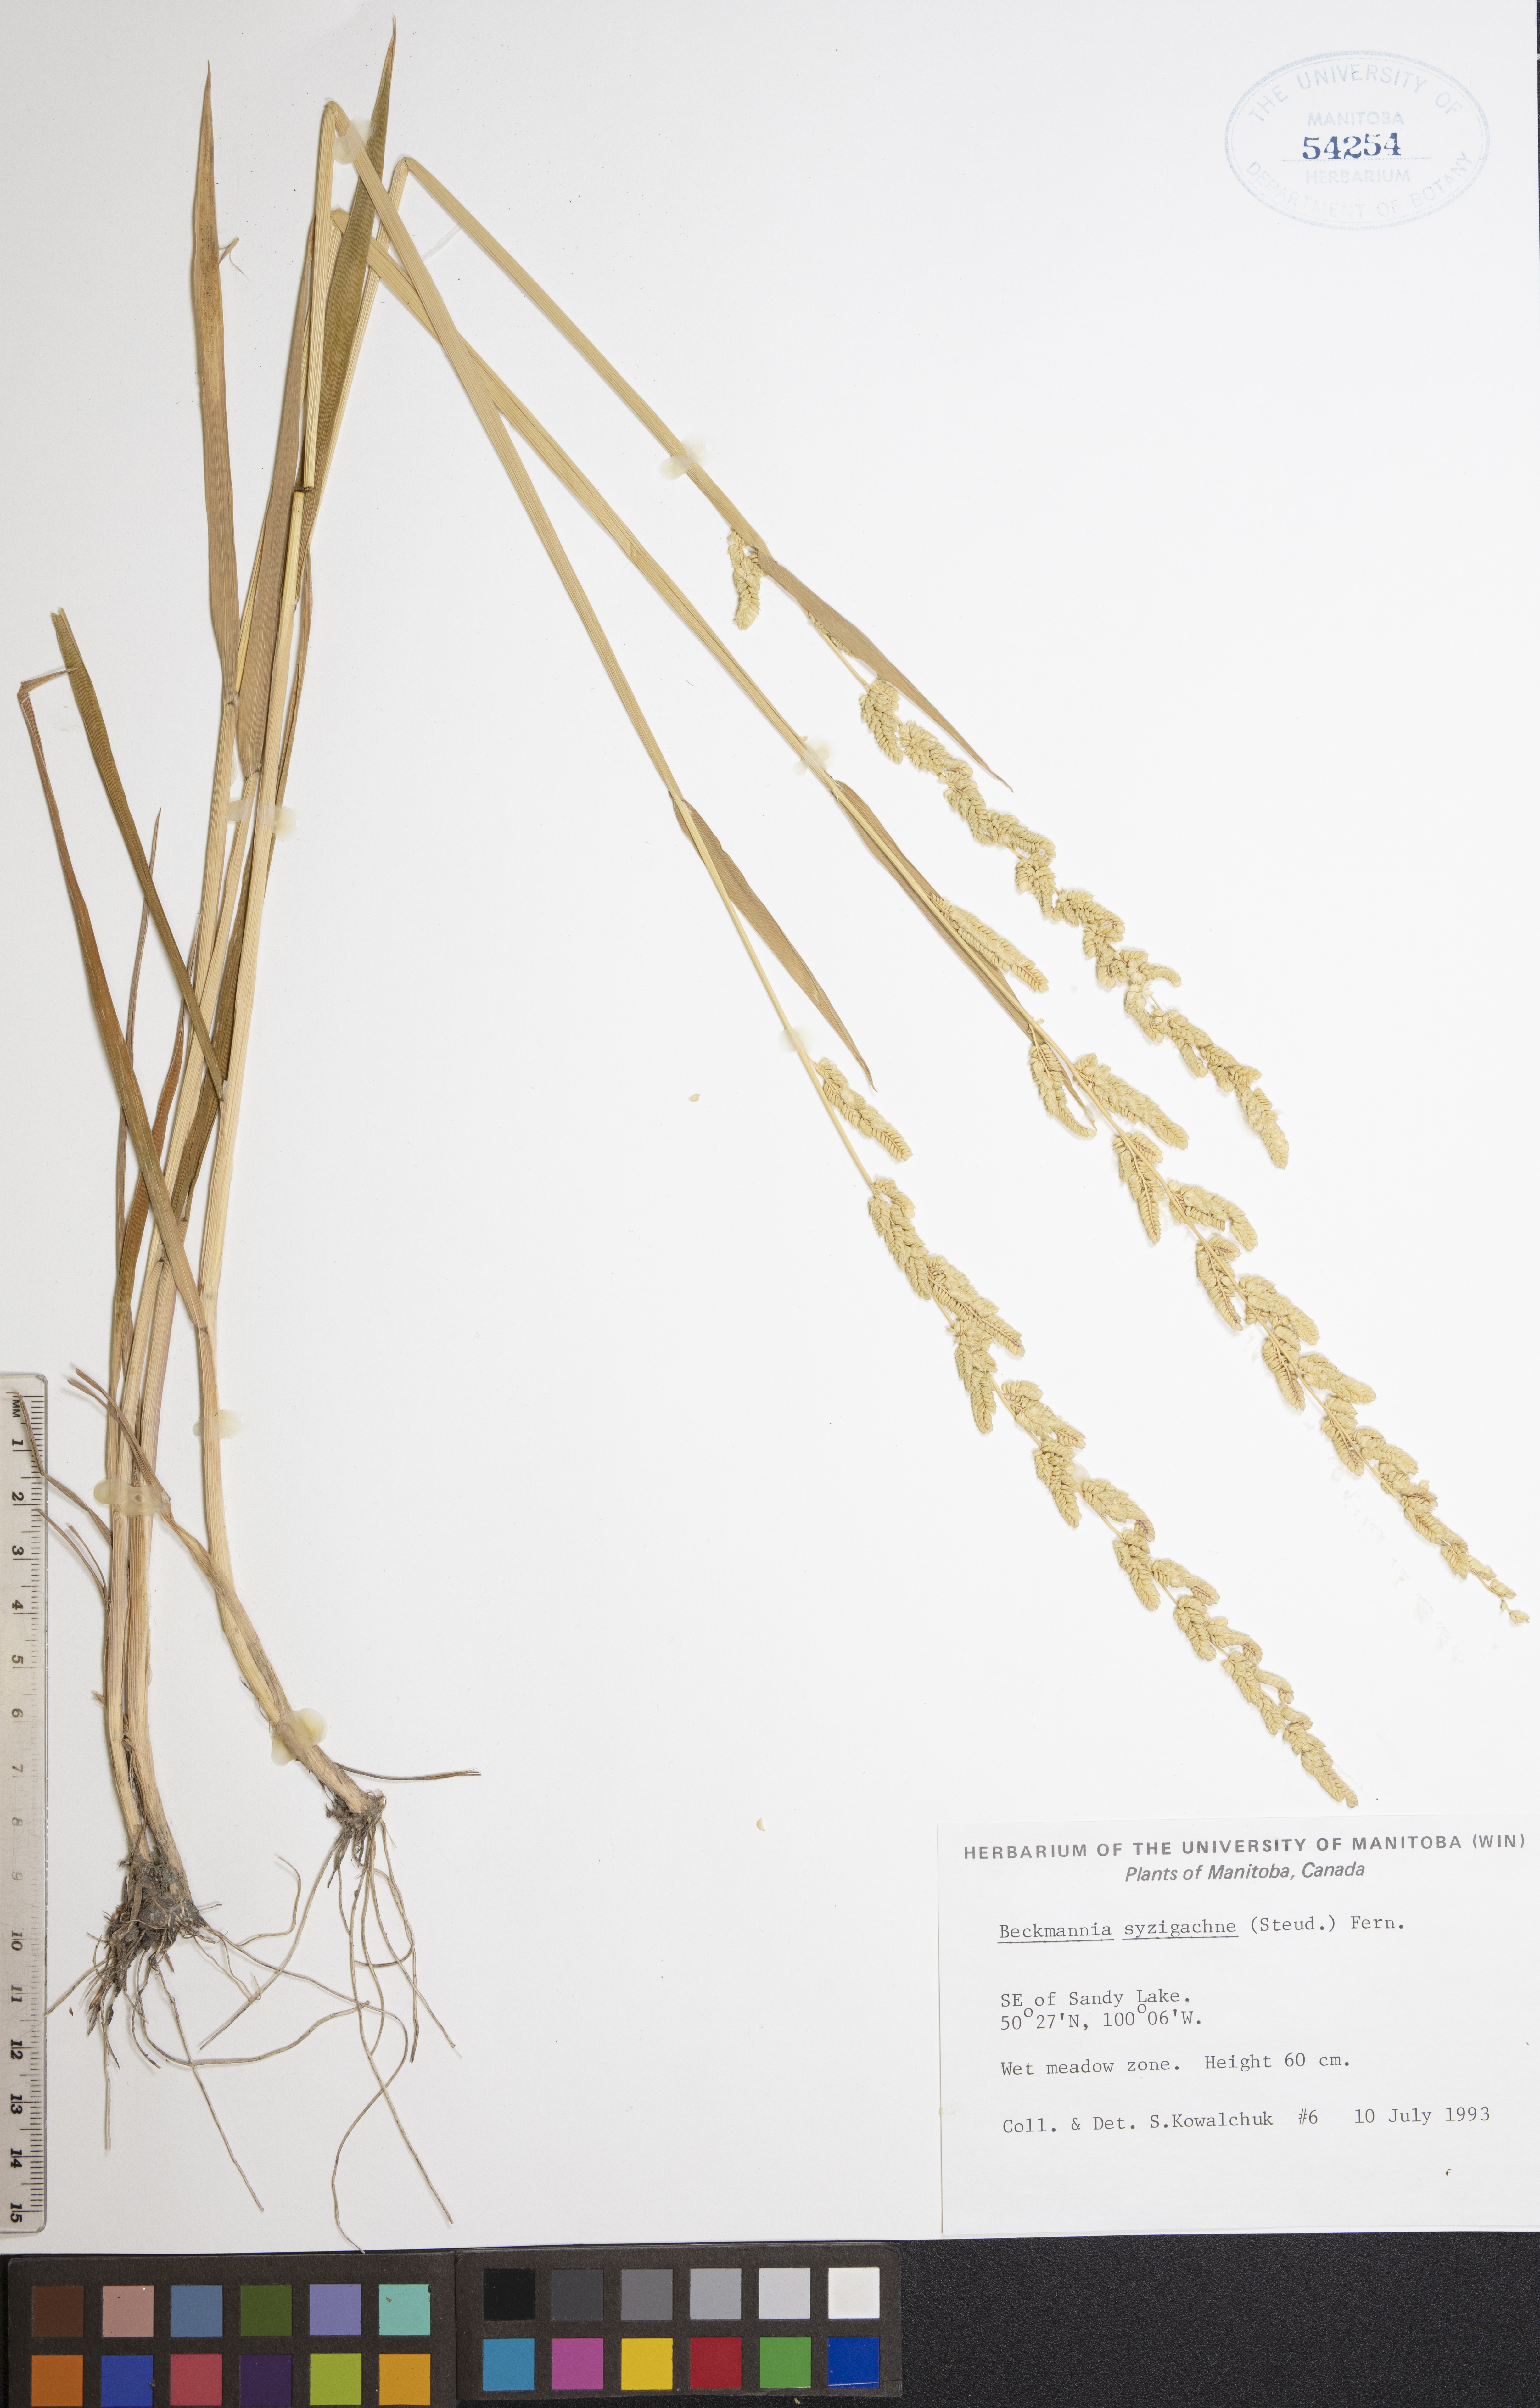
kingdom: Plantae
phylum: Tracheophyta
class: Liliopsida
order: Poales
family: Poaceae
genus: Beckmannia
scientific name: Beckmannia syzigachne
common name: American slough-grass
